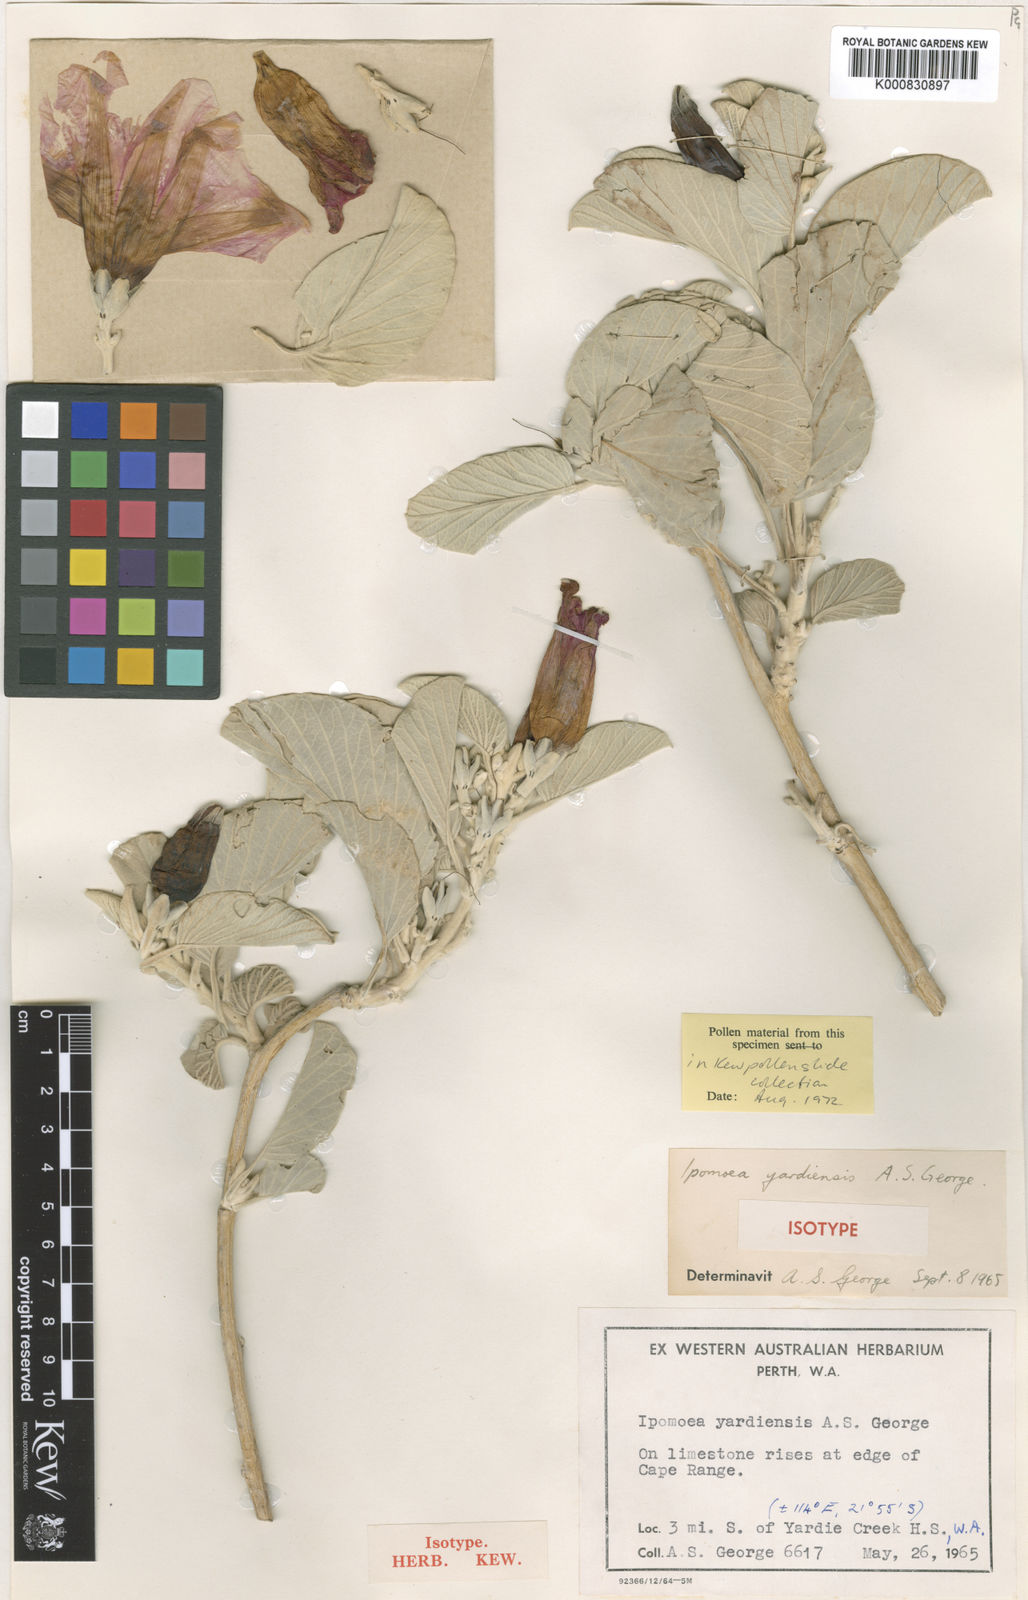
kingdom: Plantae
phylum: Tracheophyta
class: Magnoliopsida
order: Solanales
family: Convolvulaceae
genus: Ipomoea
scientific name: Ipomoea yardiensis
